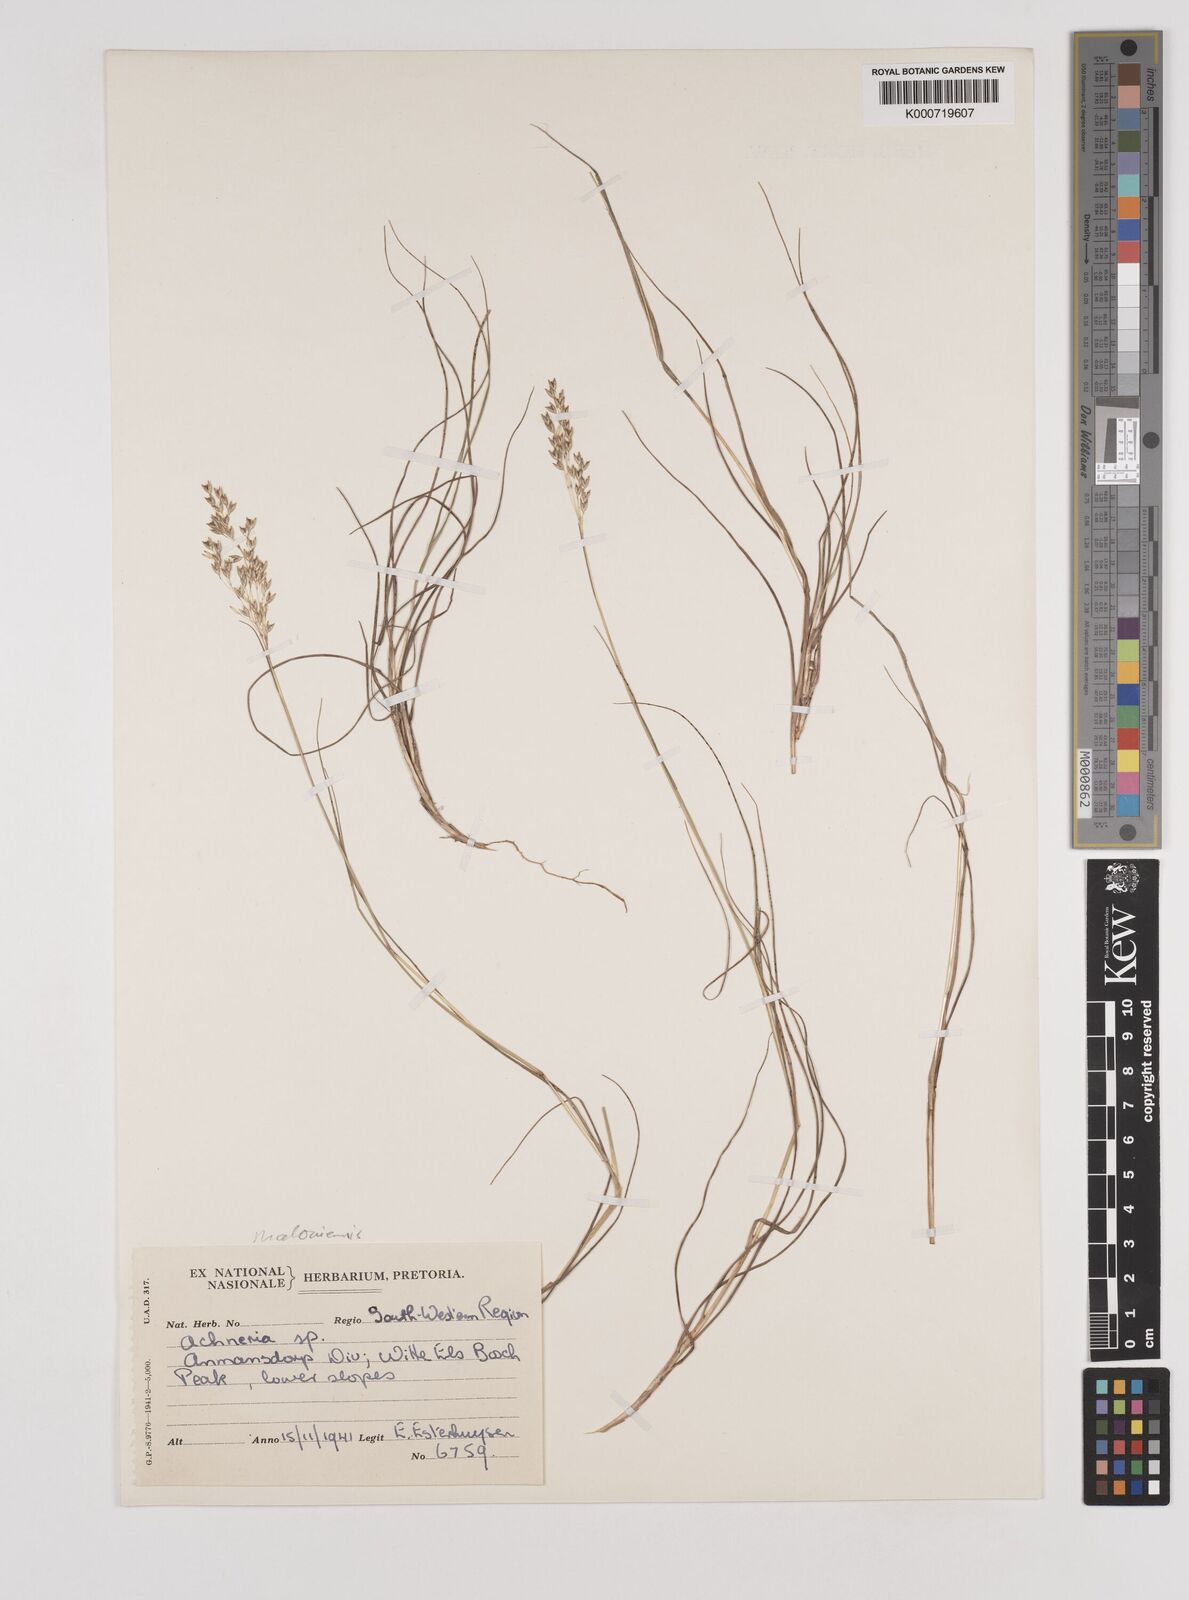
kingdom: Plantae
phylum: Tracheophyta
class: Liliopsida
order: Poales
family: Poaceae
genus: Pentameris
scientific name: Pentameris malouinensis
